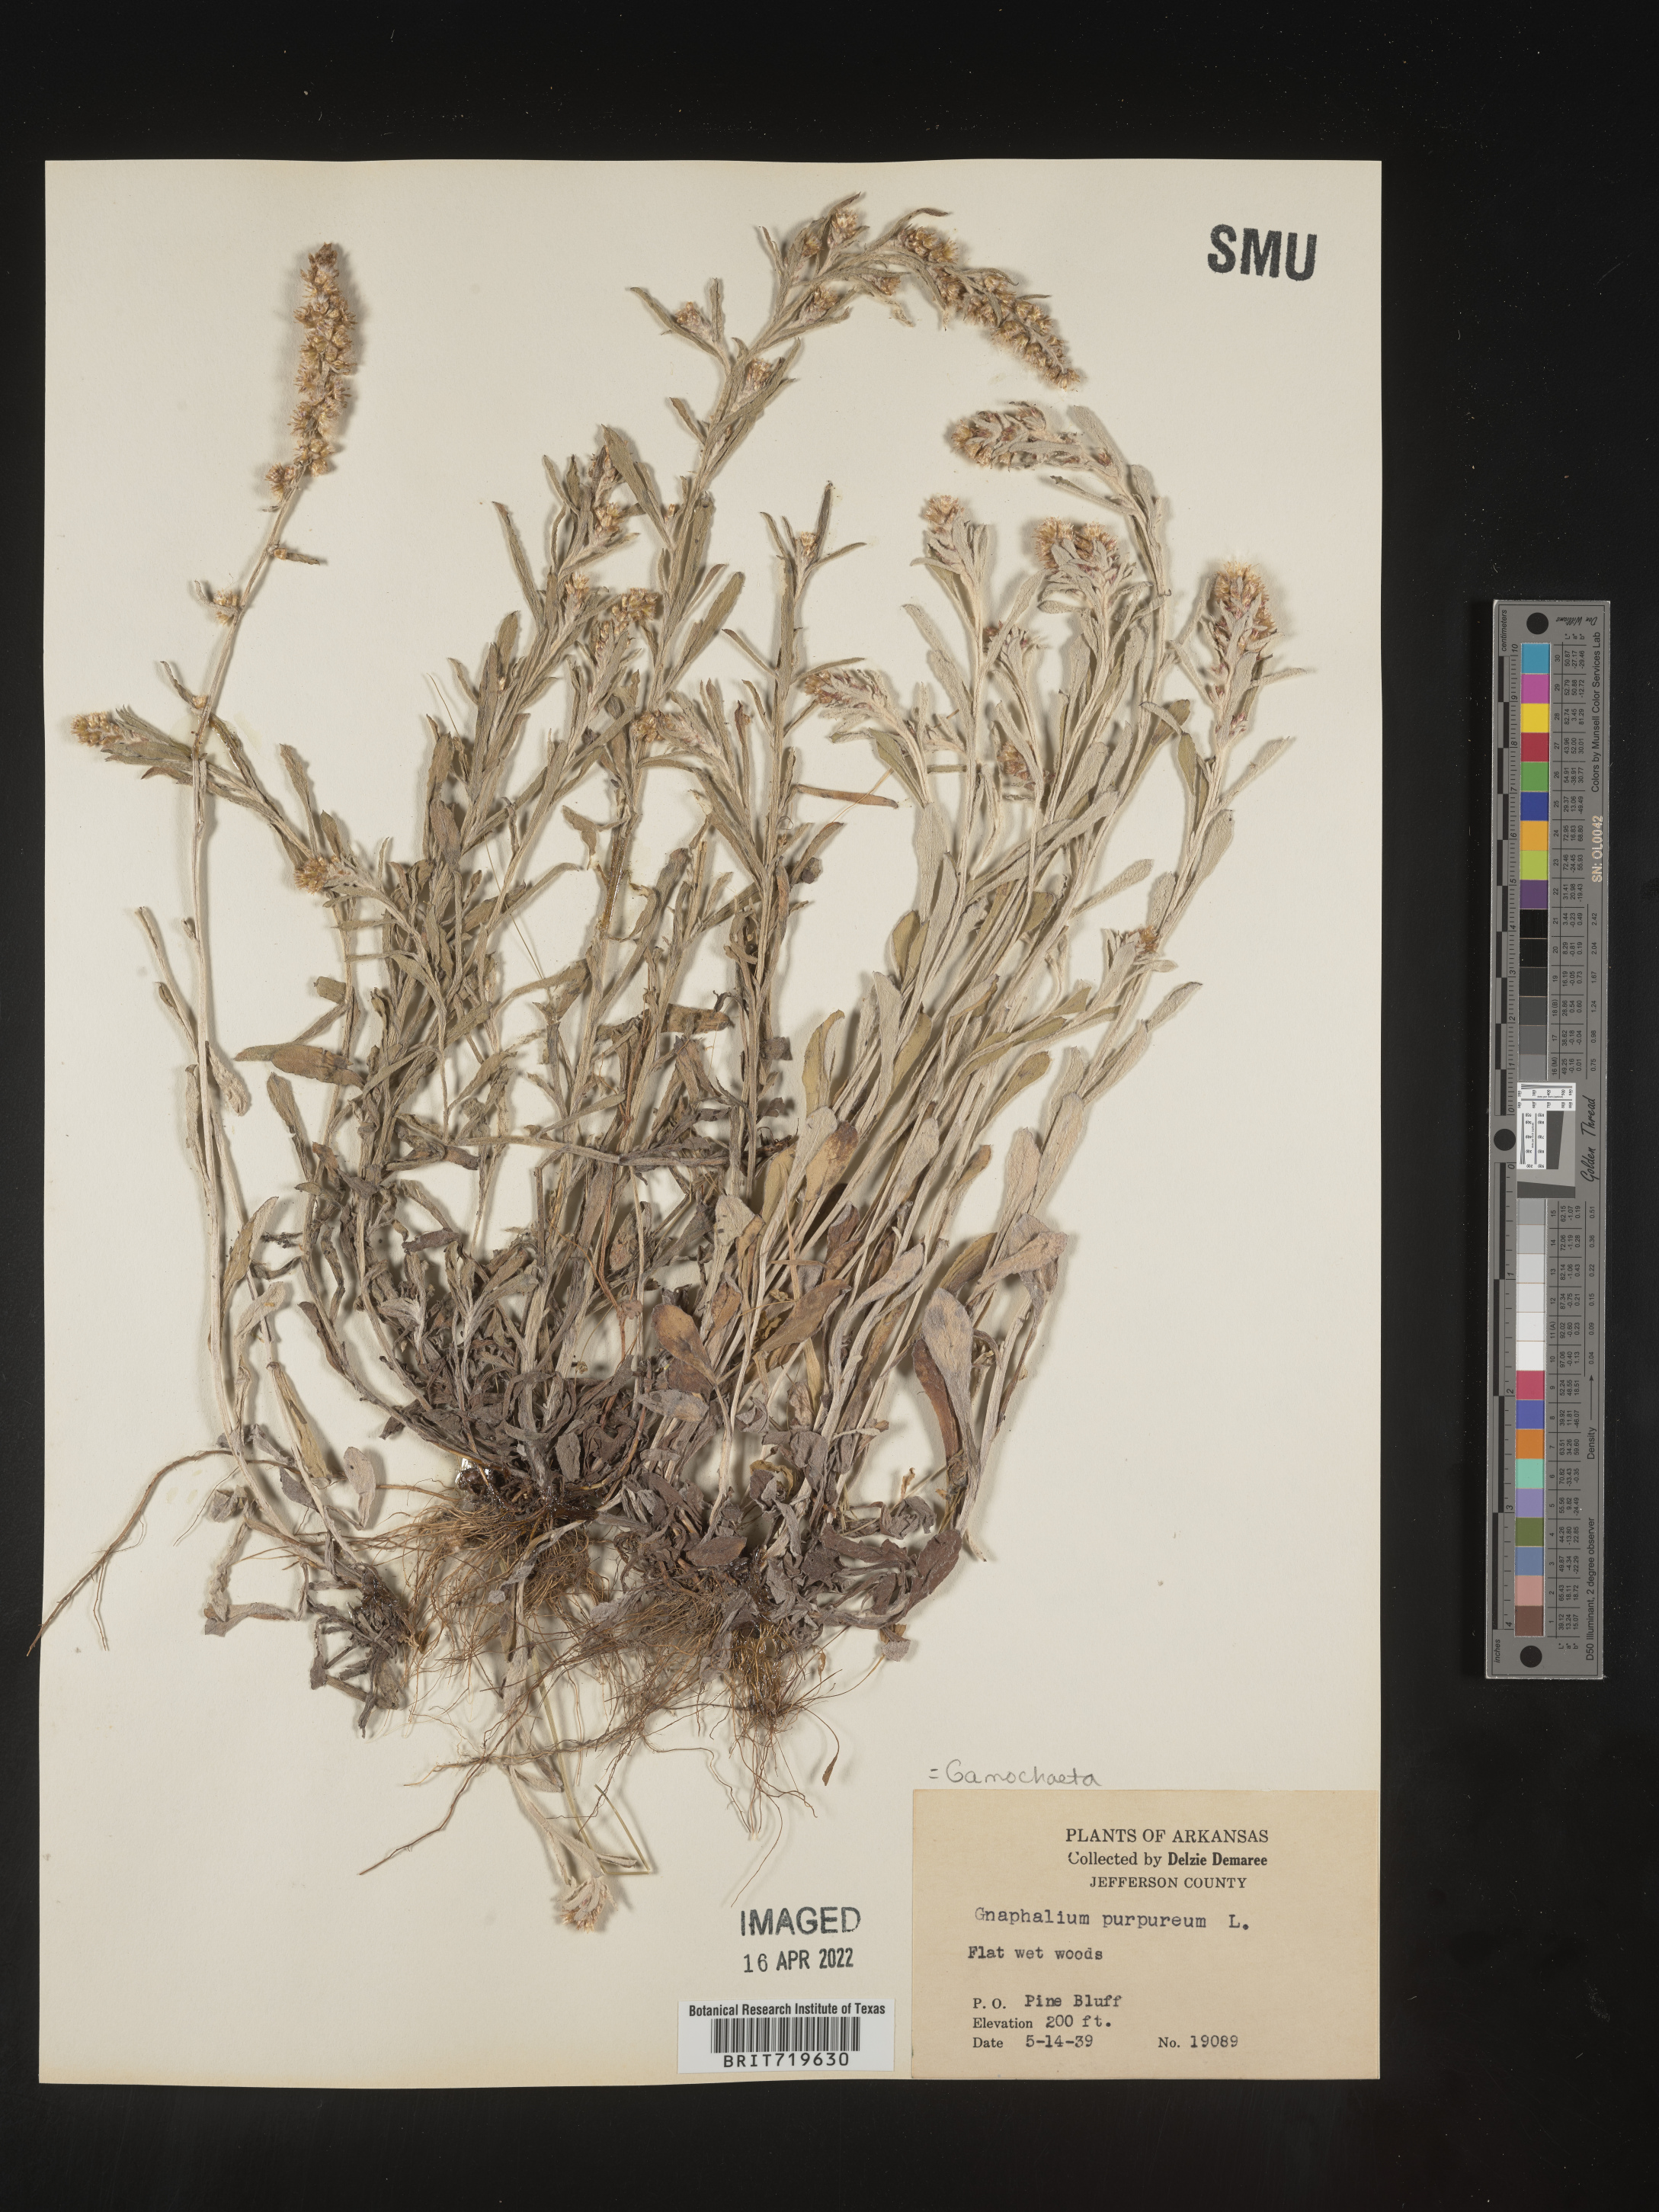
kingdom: Plantae
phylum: Tracheophyta
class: Magnoliopsida
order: Asterales
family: Asteraceae
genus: Gamochaeta
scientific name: Gamochaeta purpurea
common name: Purple cudweed
